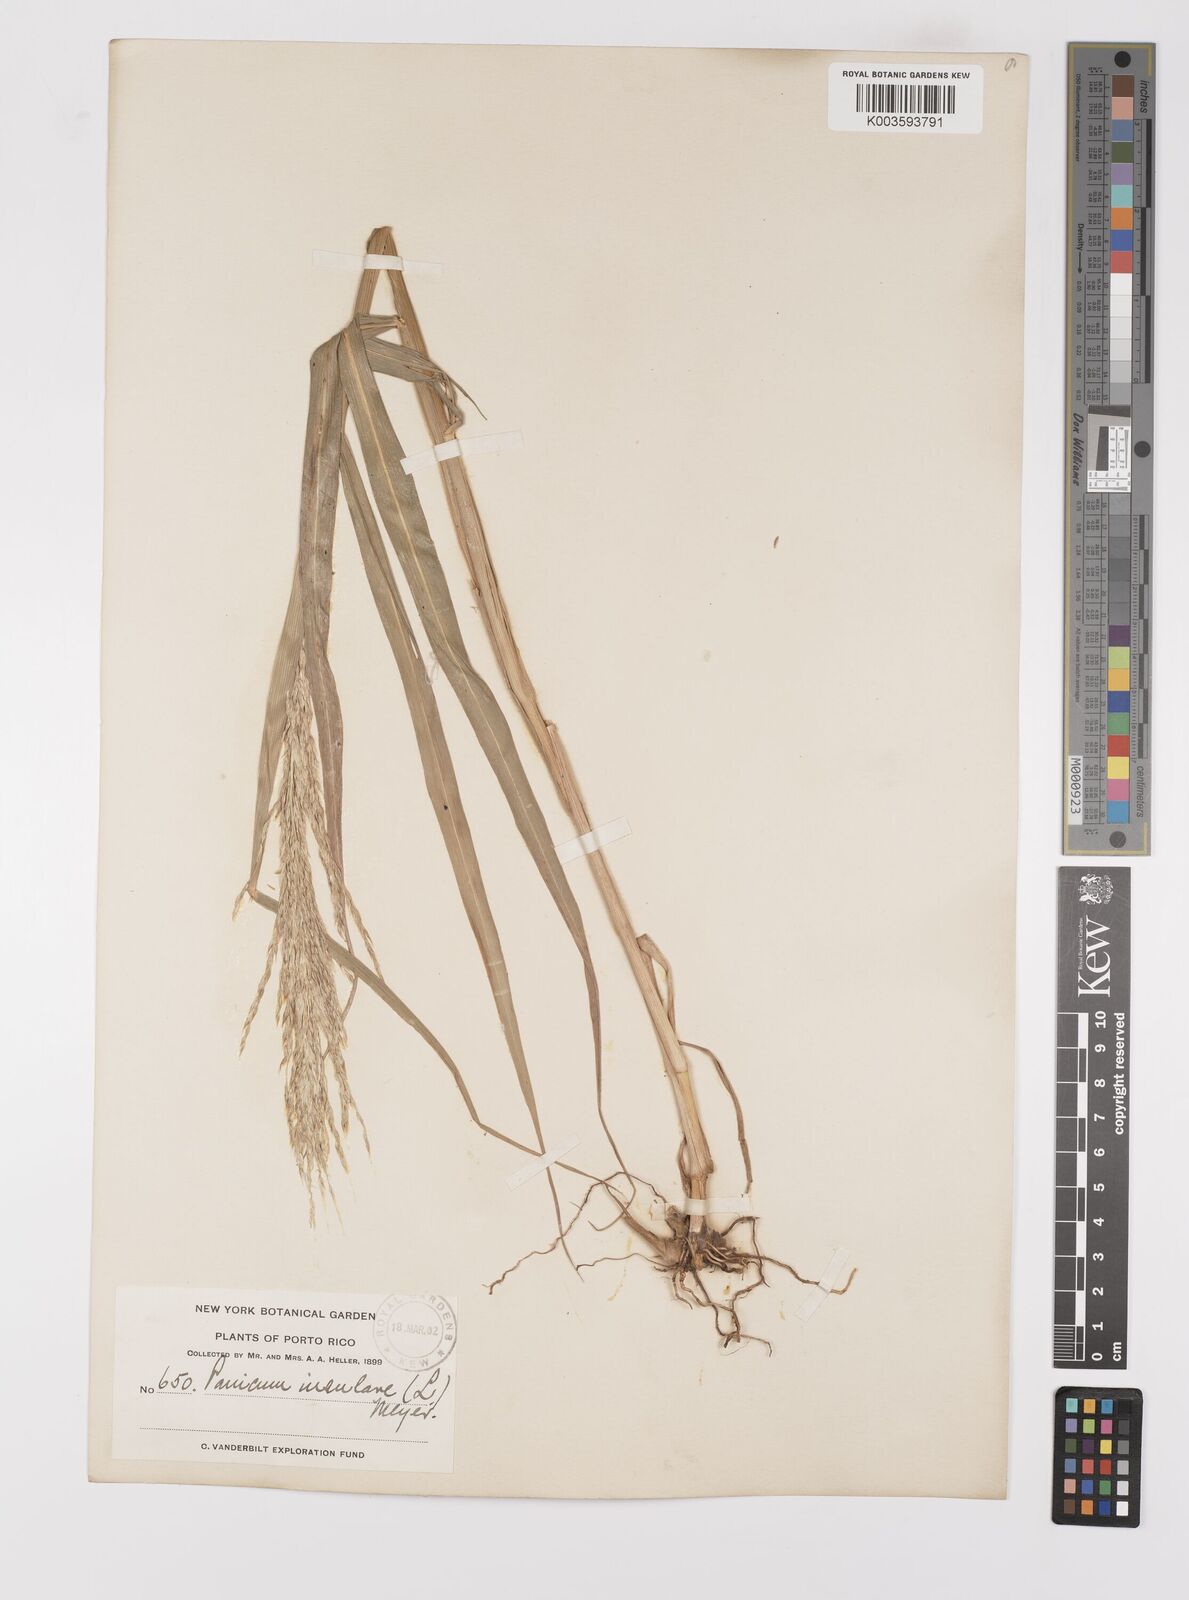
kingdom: Plantae
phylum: Tracheophyta
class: Liliopsida
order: Poales
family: Poaceae
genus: Digitaria
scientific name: Digitaria insularis
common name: Sourgrass
